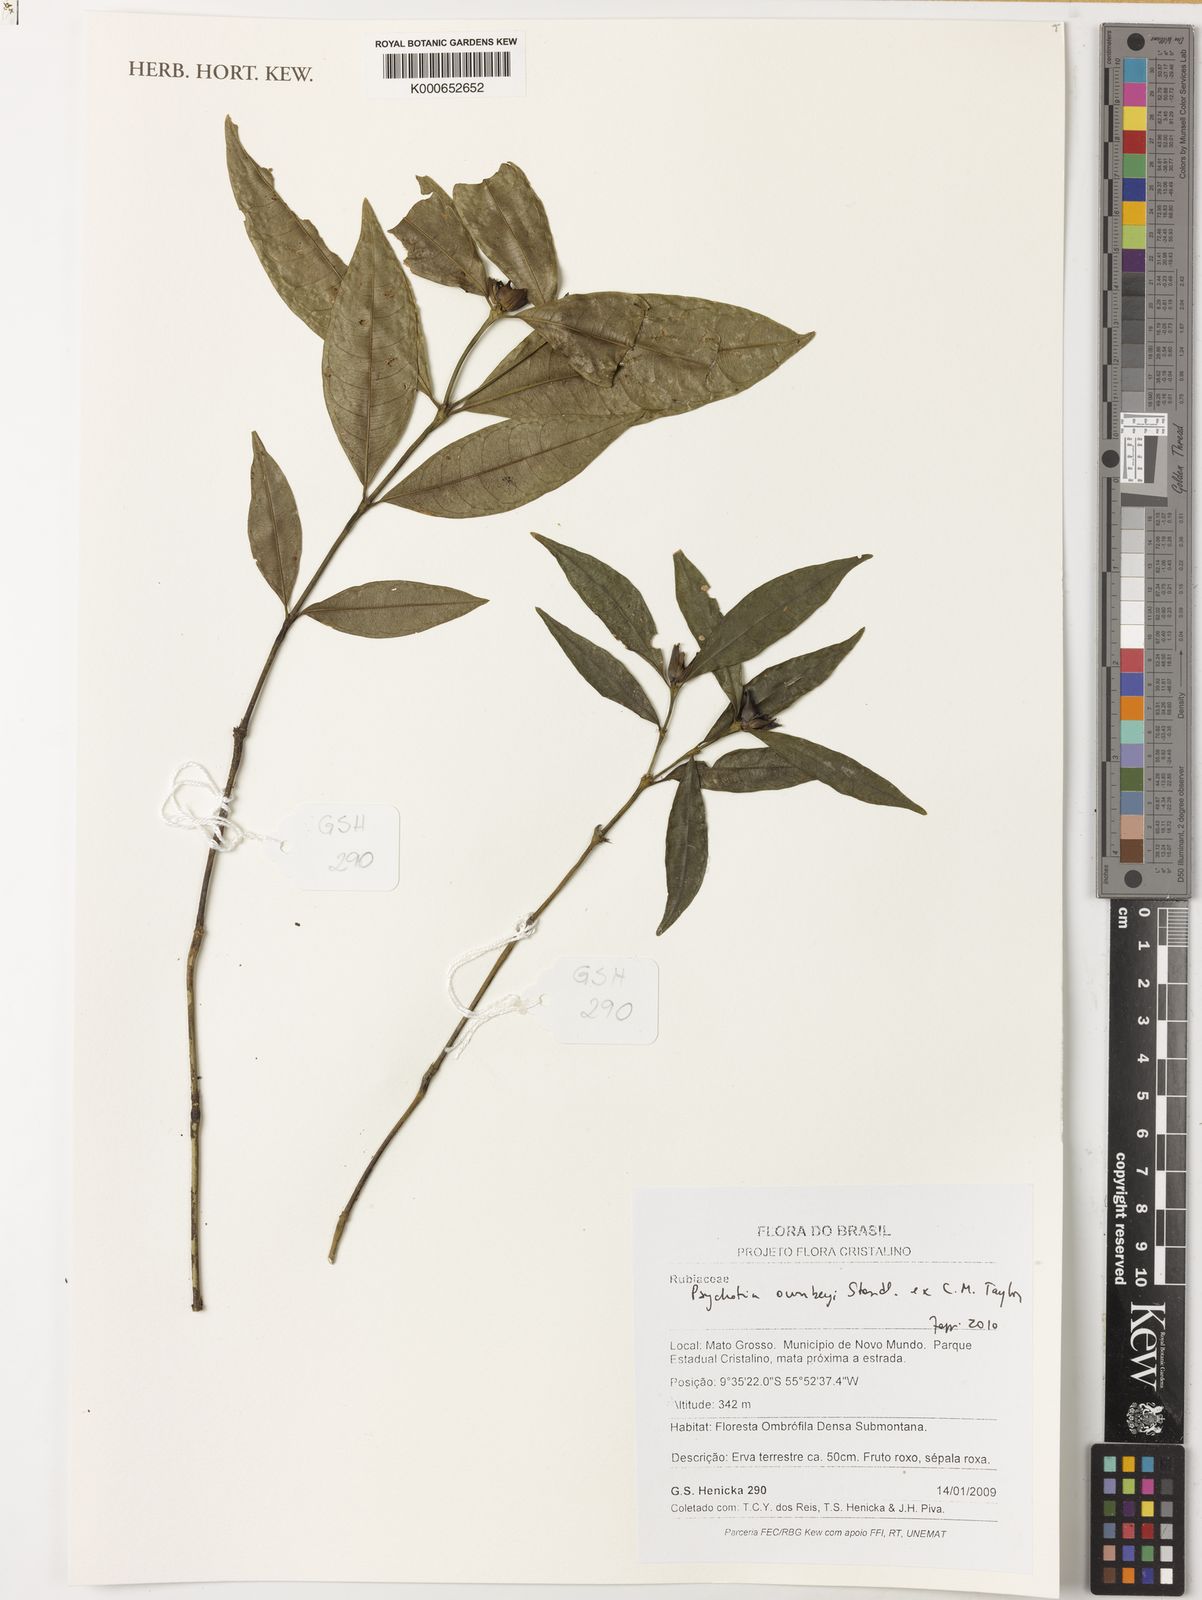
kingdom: Plantae
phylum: Tracheophyta
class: Magnoliopsida
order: Gentianales
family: Rubiaceae
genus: Palicourea
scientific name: Palicourea ownbeyi
